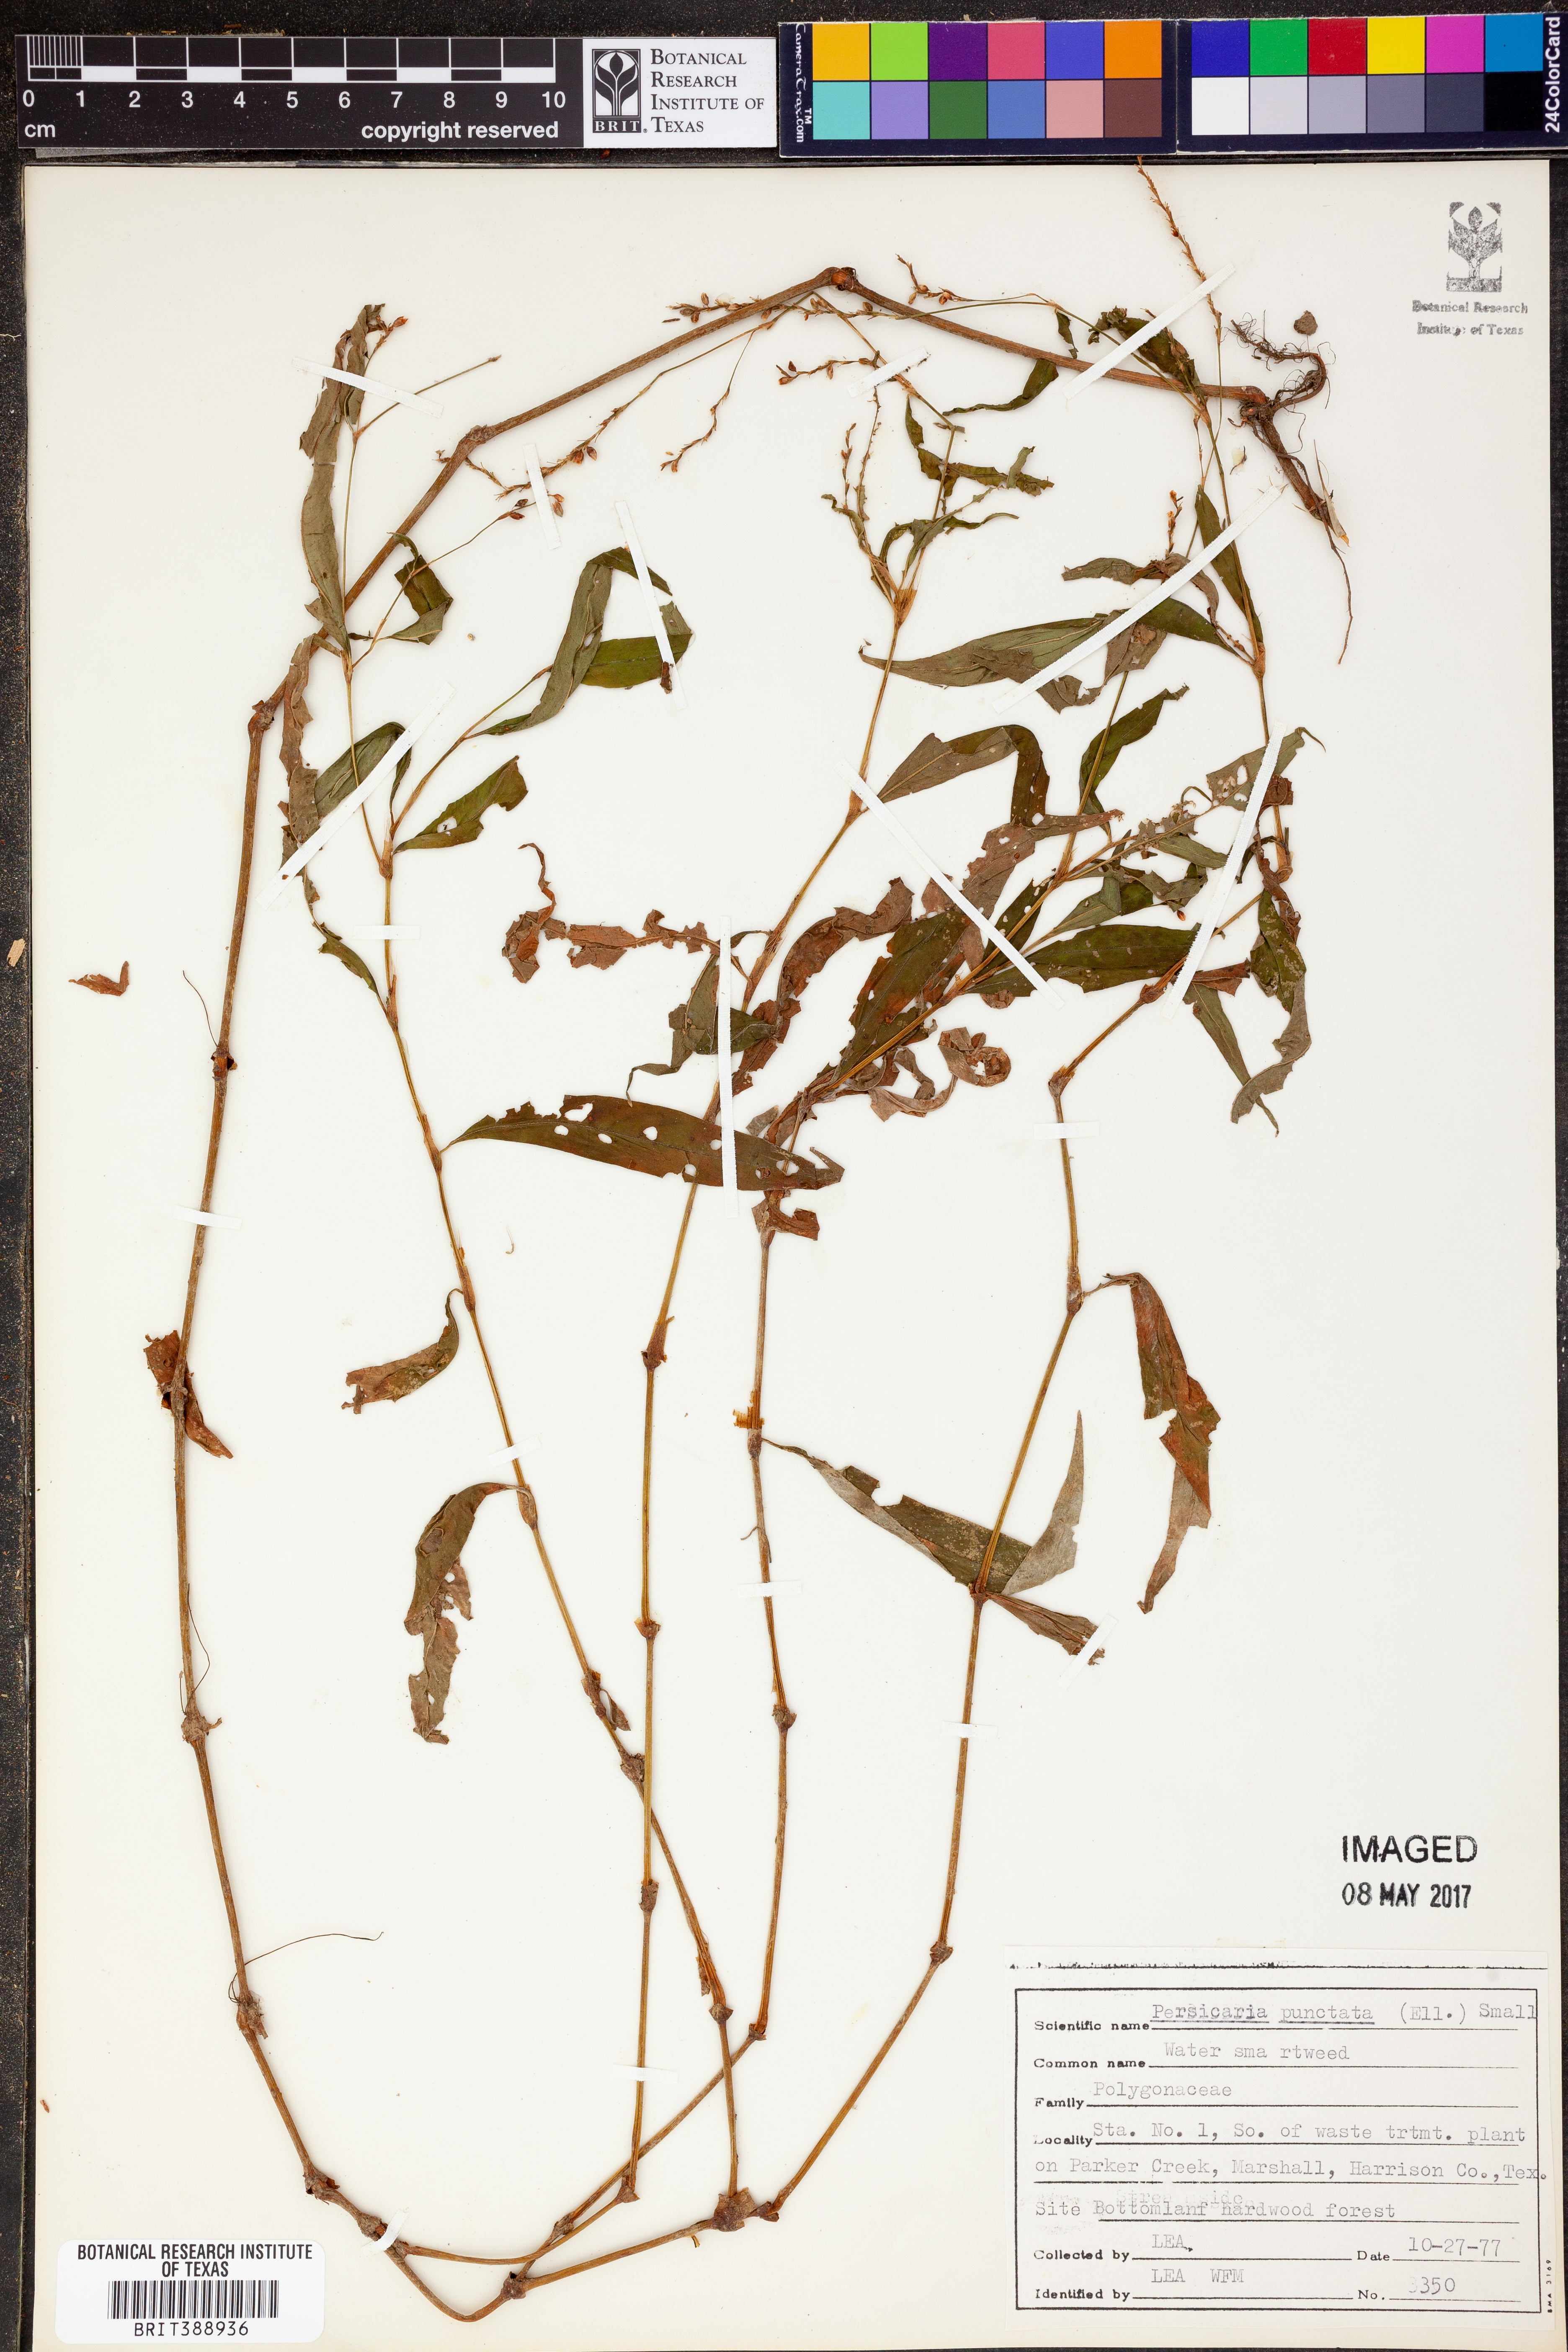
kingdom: Plantae
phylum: Tracheophyta
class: Magnoliopsida
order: Caryophyllales
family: Polygonaceae
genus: Persicaria
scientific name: Persicaria punctata
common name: Dotted smartweed
